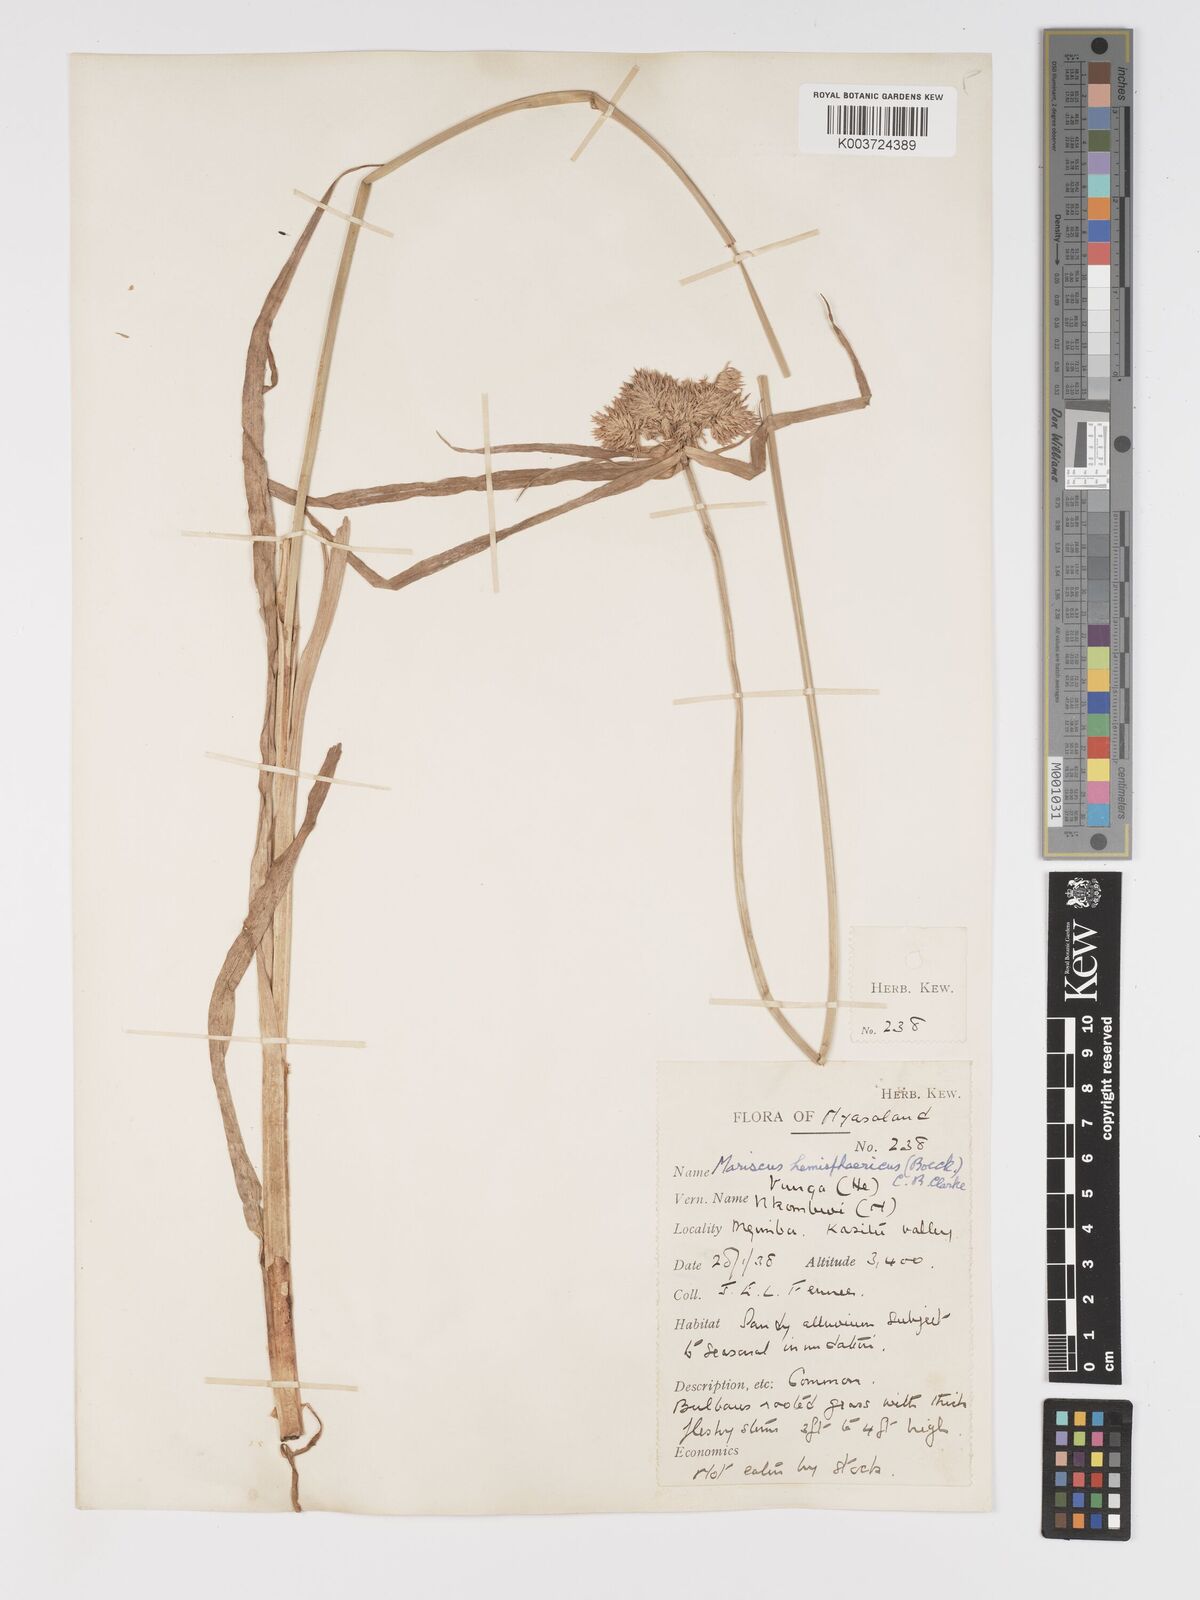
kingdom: Plantae
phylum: Tracheophyta
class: Liliopsida
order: Poales
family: Cyperaceae
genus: Cyperus
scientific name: Cyperus hemisphaericus
